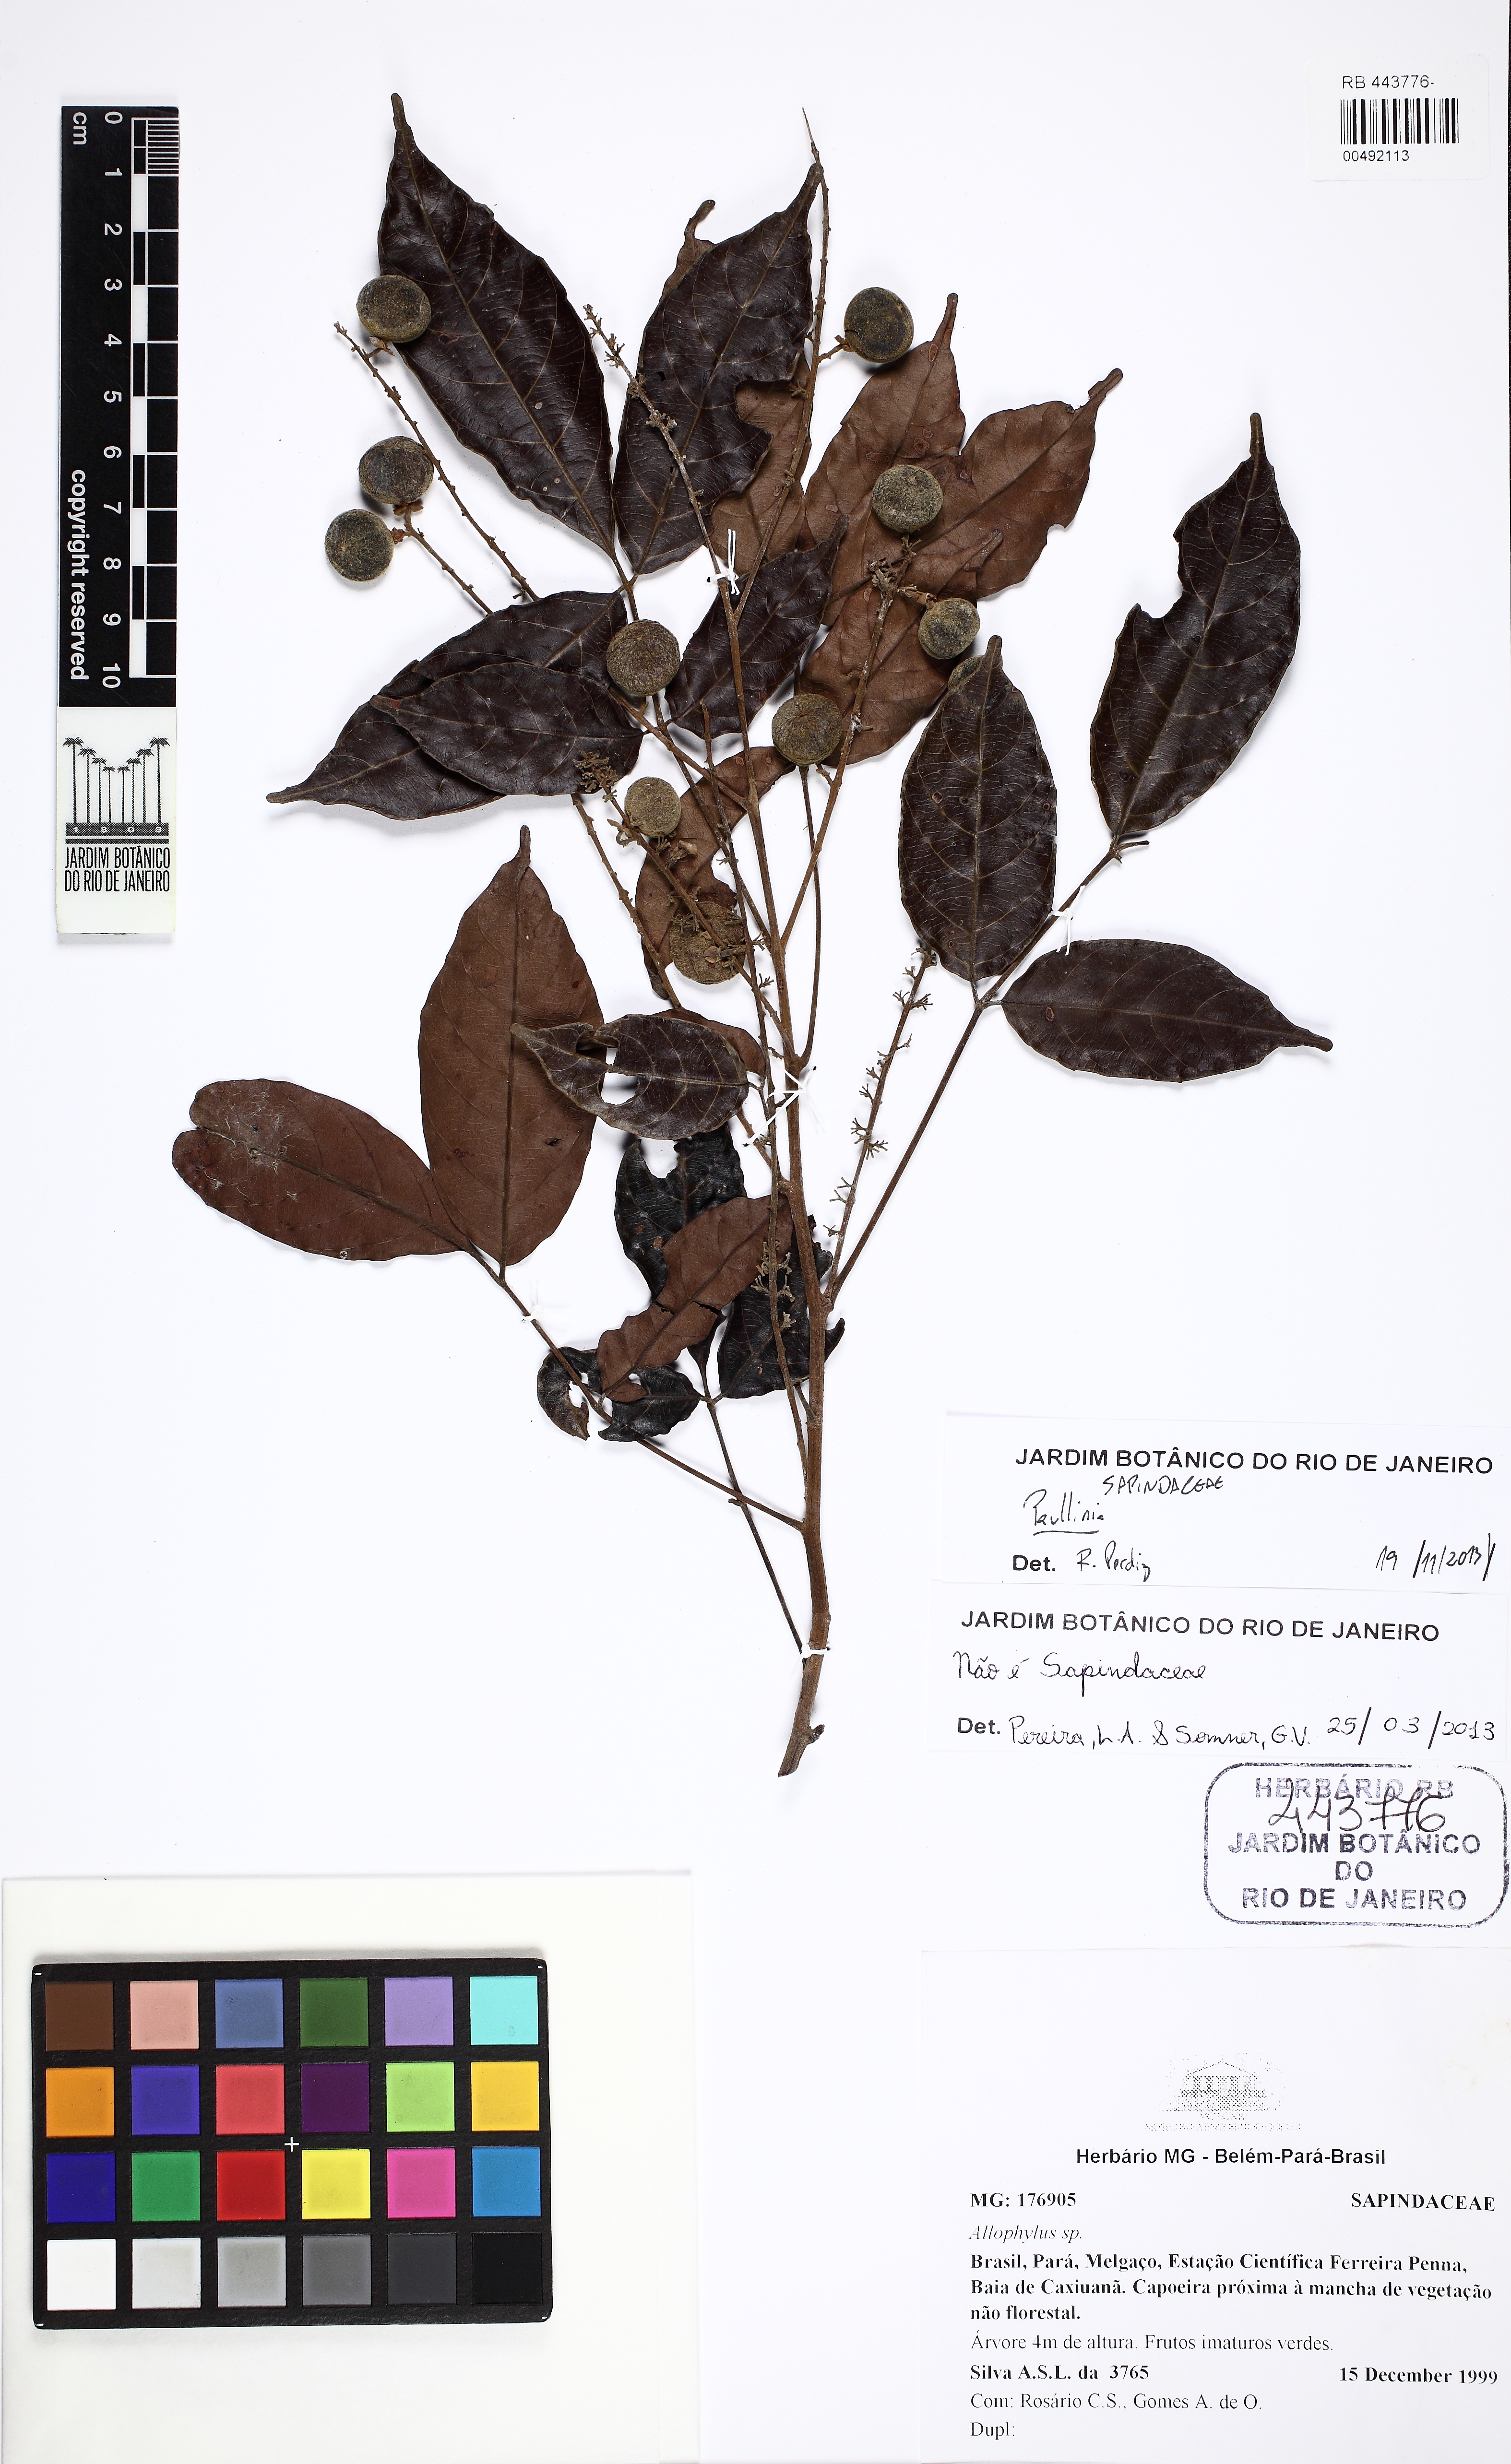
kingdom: Plantae
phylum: Tracheophyta
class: Magnoliopsida
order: Sapindales
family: Sapindaceae
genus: Paullinia
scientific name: Paullinia
